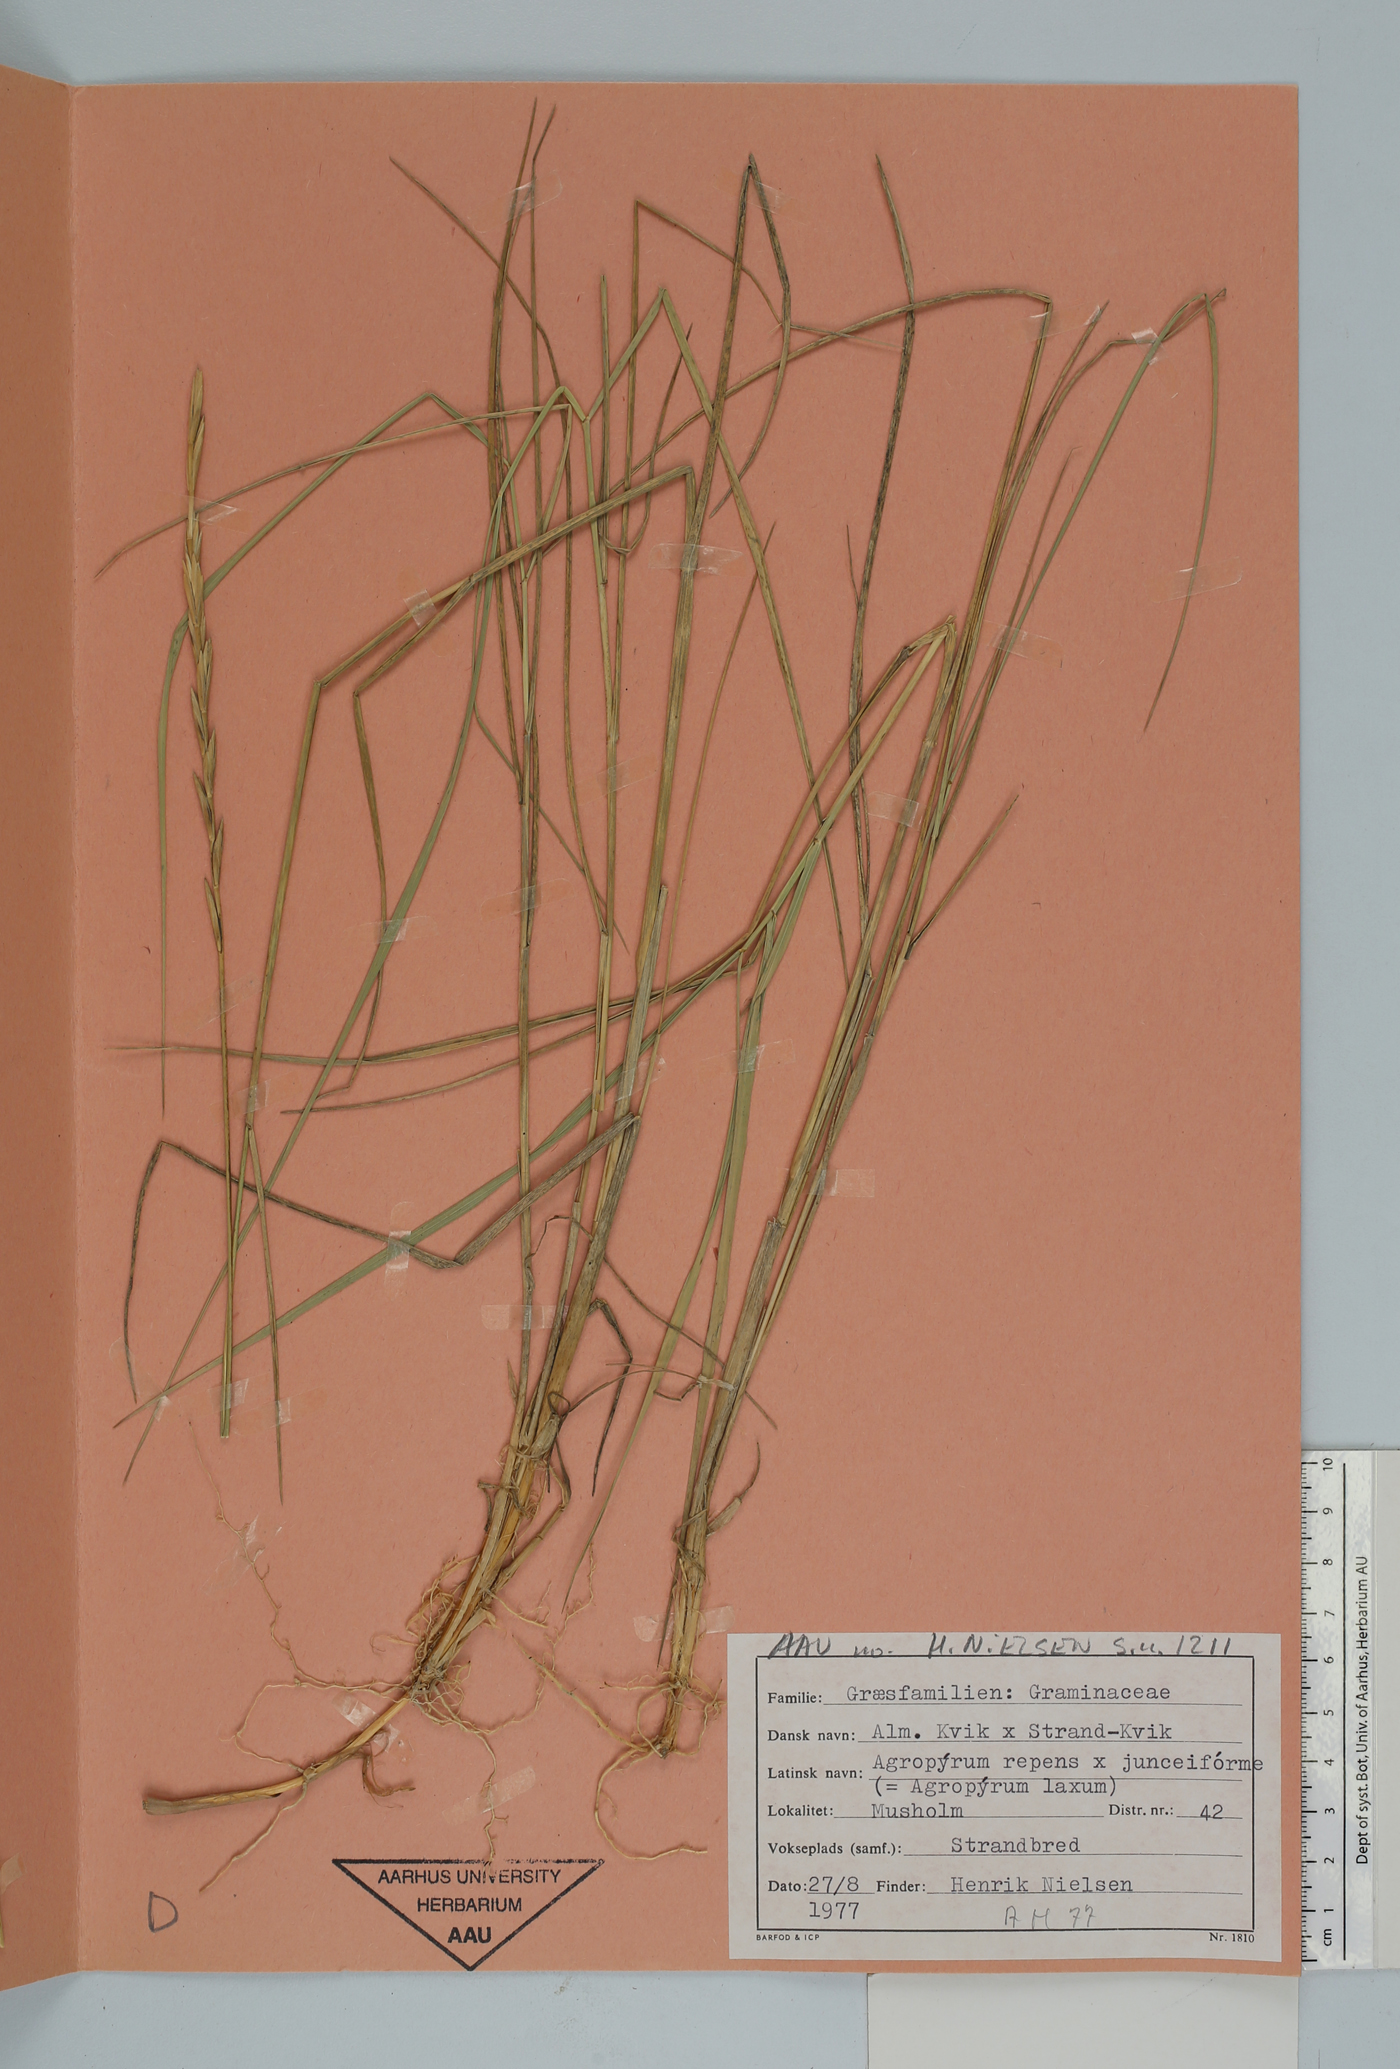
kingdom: Plantae
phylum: Tracheophyta
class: Liliopsida
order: Poales
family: Poaceae
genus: Elymus
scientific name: Elymus repens
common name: Quackgrass
